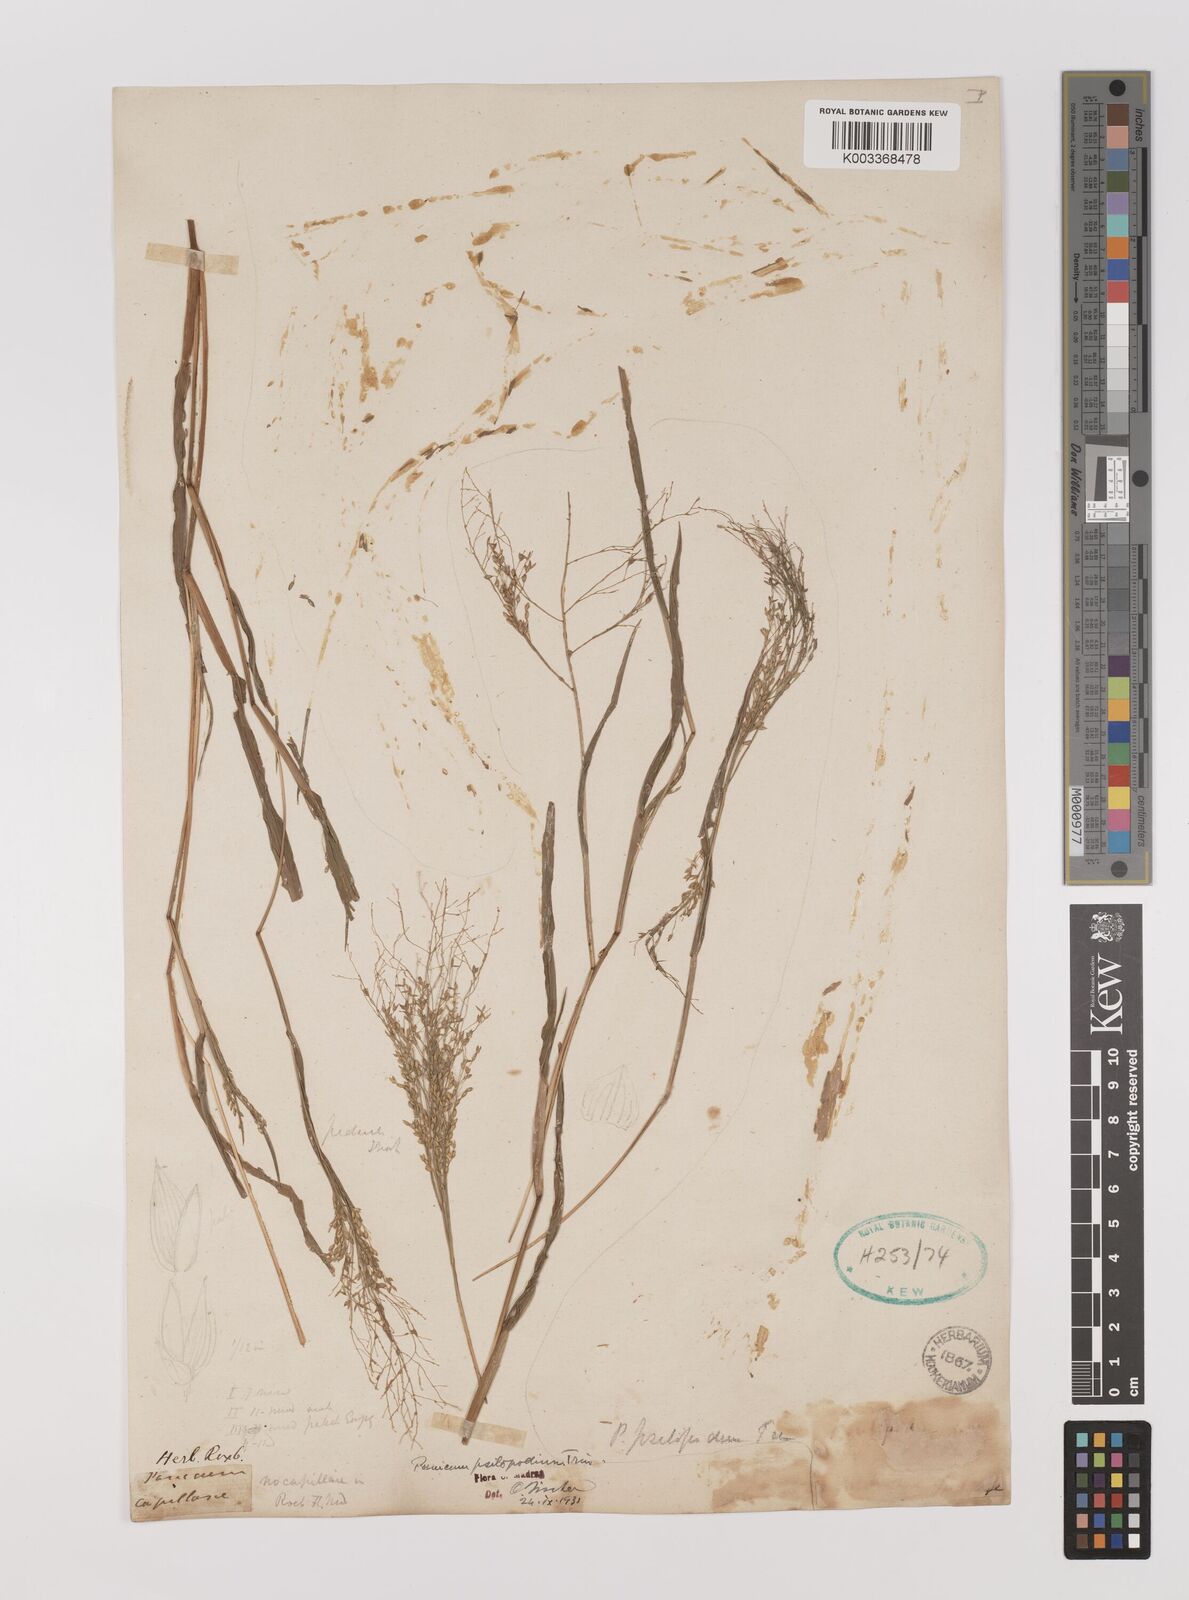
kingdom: Plantae
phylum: Tracheophyta
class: Liliopsida
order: Poales
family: Poaceae
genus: Panicum
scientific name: Panicum sumatrense
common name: Little millet
